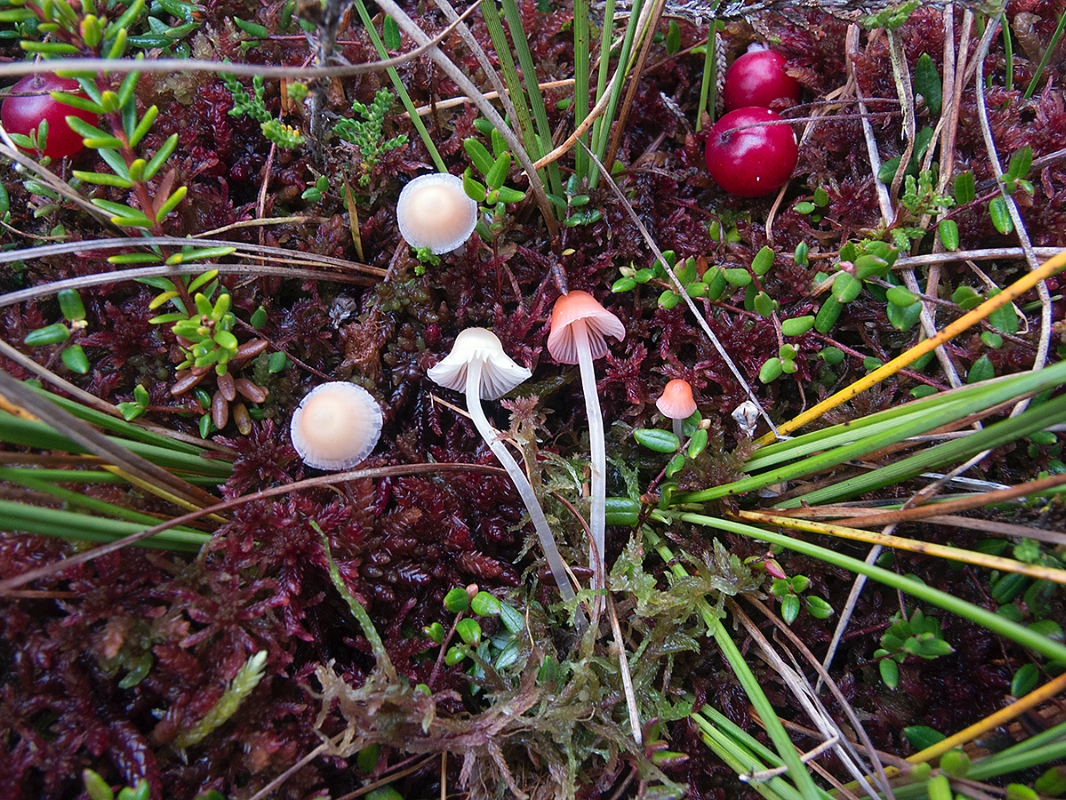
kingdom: Fungi
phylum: Basidiomycota
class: Agaricomycetes
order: Agaricales
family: Mycenaceae
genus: Atheniella
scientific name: Atheniella adonis
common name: rønnerød huesvamp
